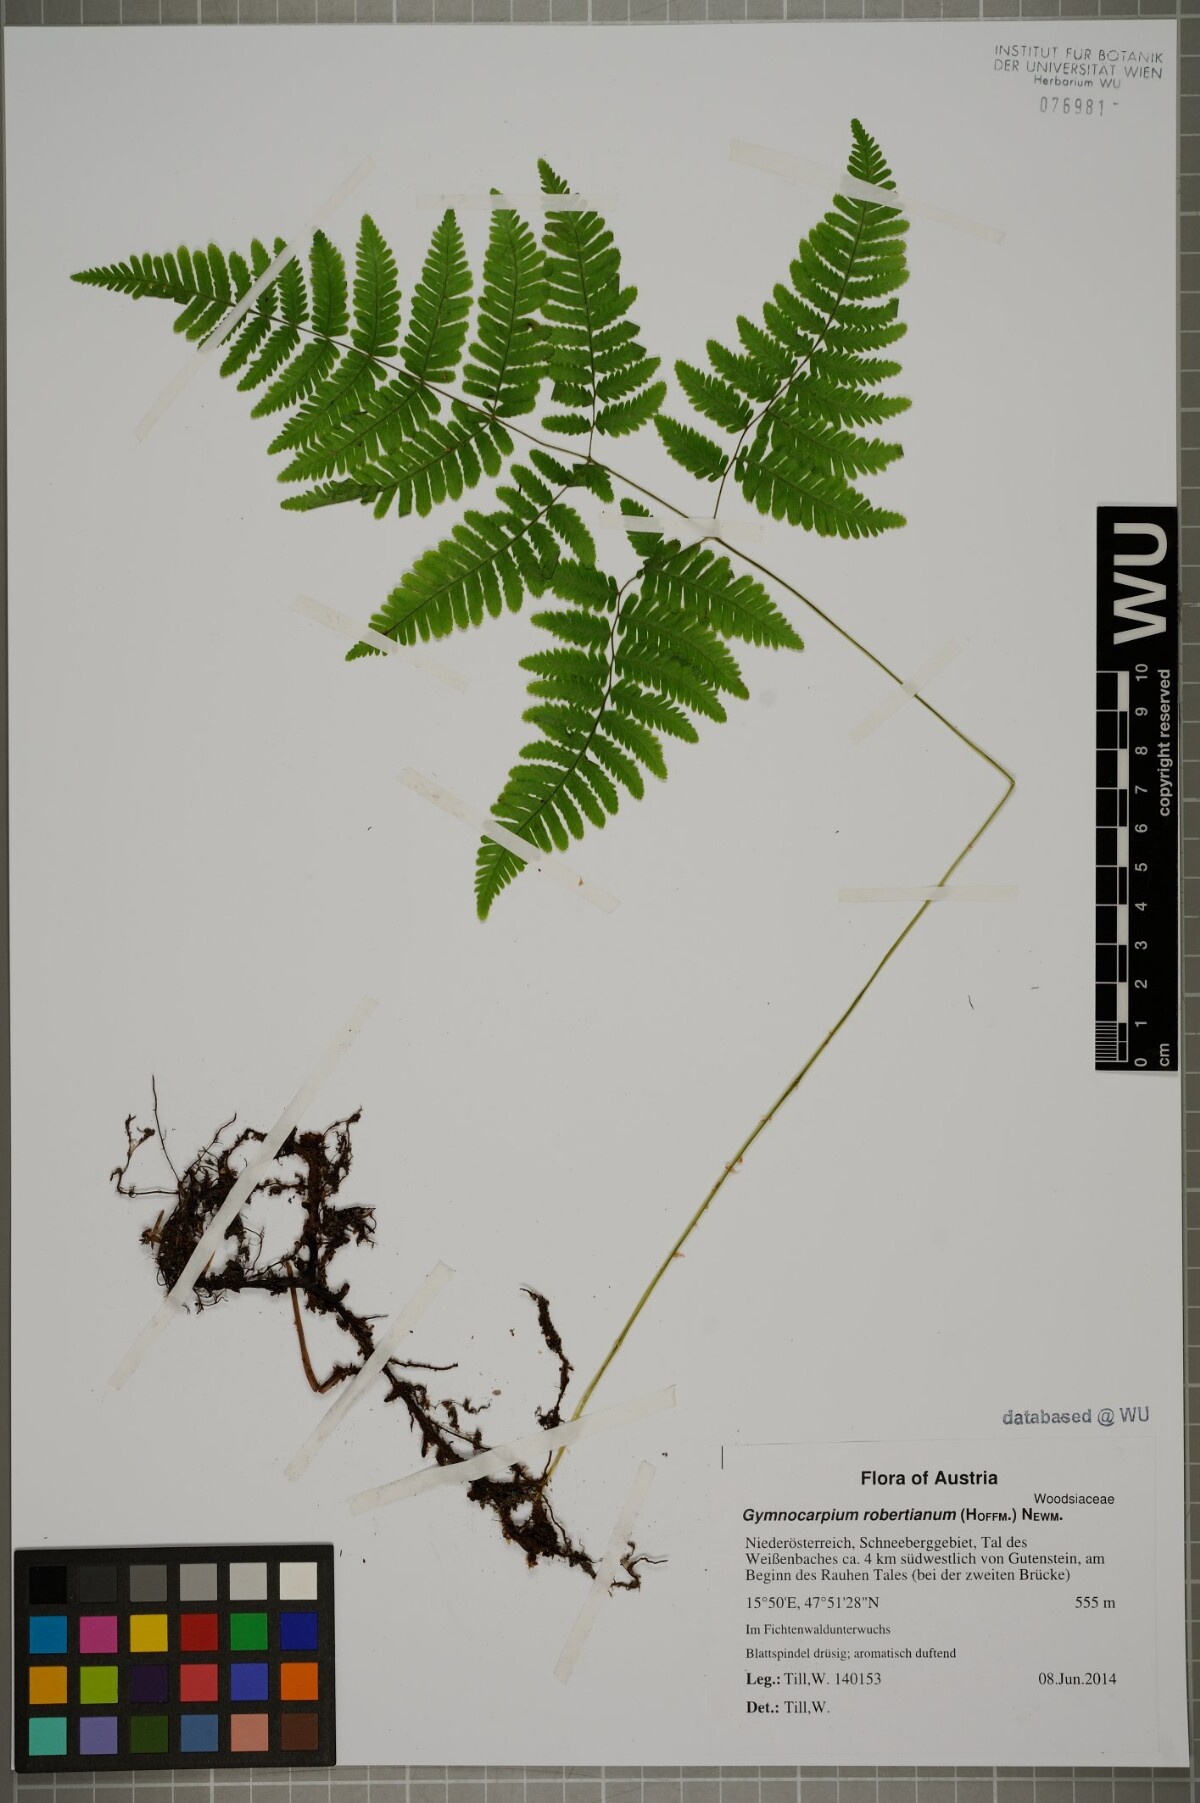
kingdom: Plantae
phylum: Tracheophyta
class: Polypodiopsida
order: Polypodiales
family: Cystopteridaceae
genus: Gymnocarpium
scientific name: Gymnocarpium robertianum
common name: Limestone fern
